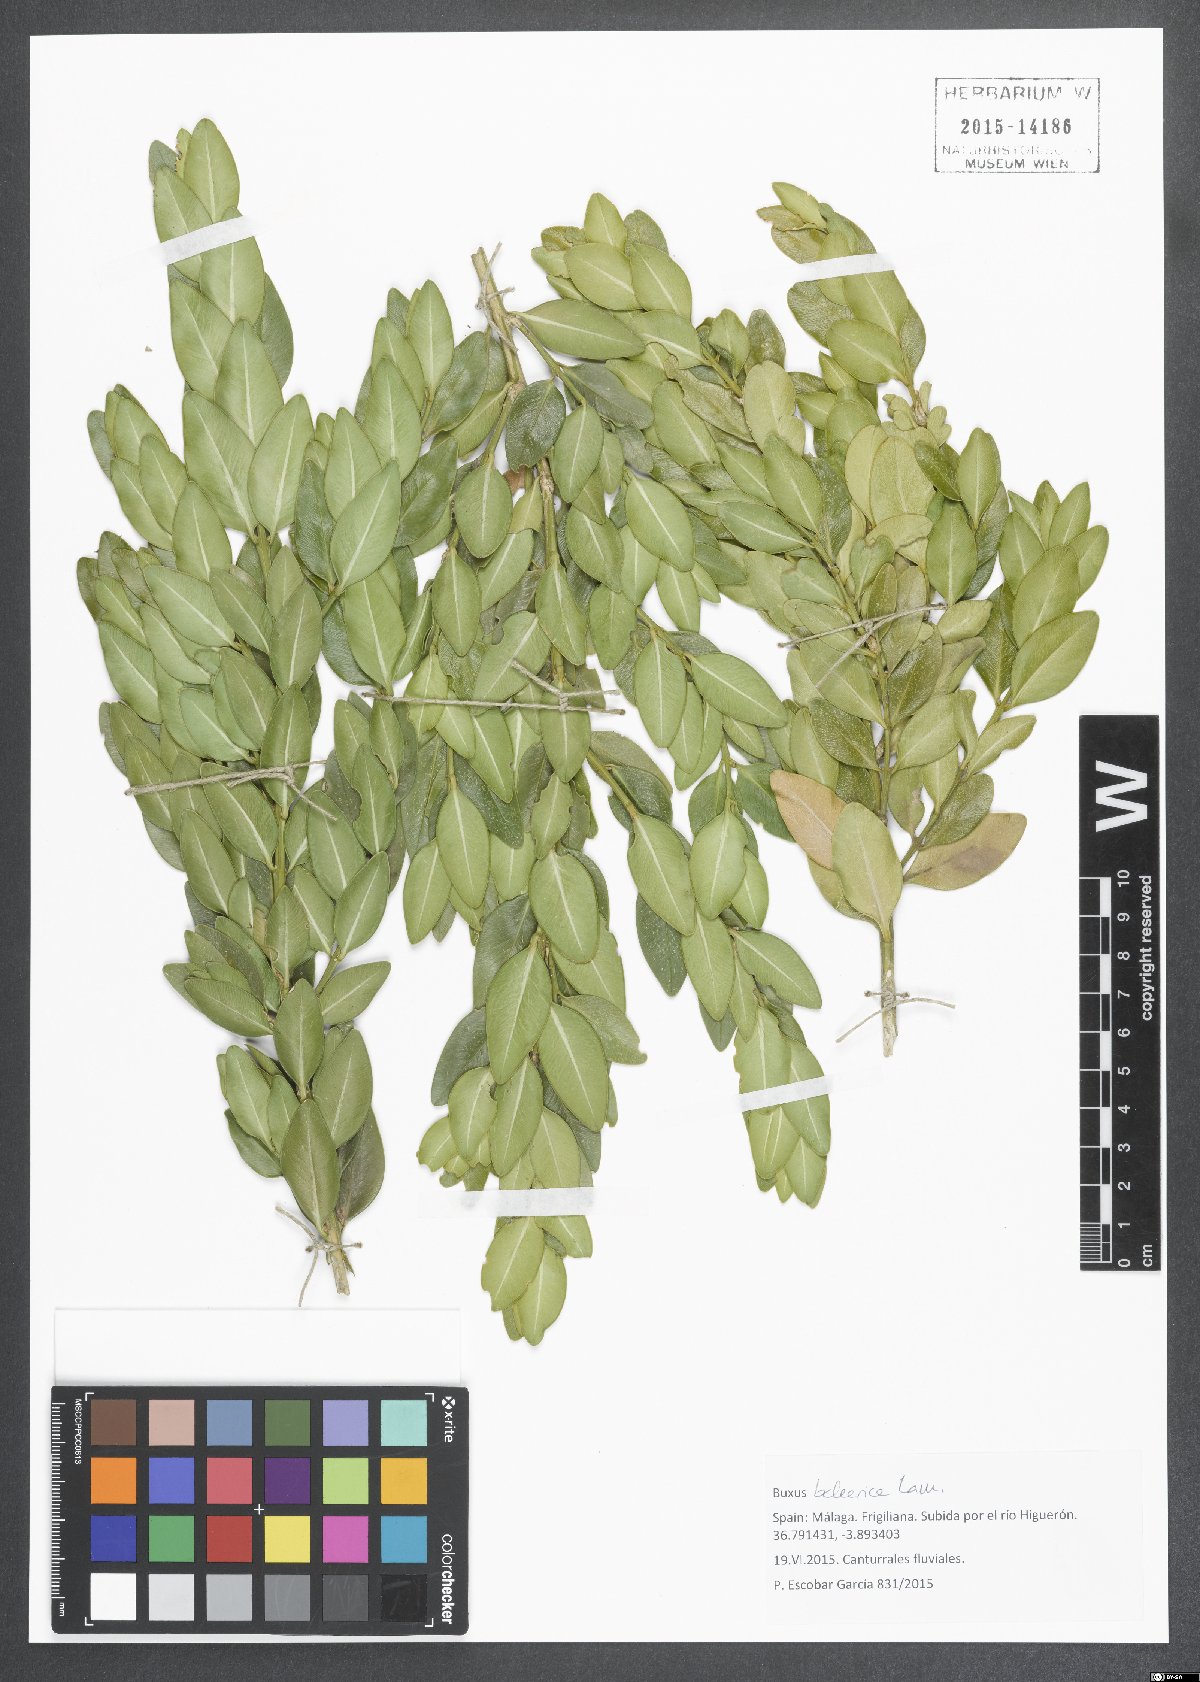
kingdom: Plantae
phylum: Tracheophyta
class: Magnoliopsida
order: Buxales
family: Buxaceae
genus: Buxus
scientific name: Buxus balearica
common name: Balearic box
